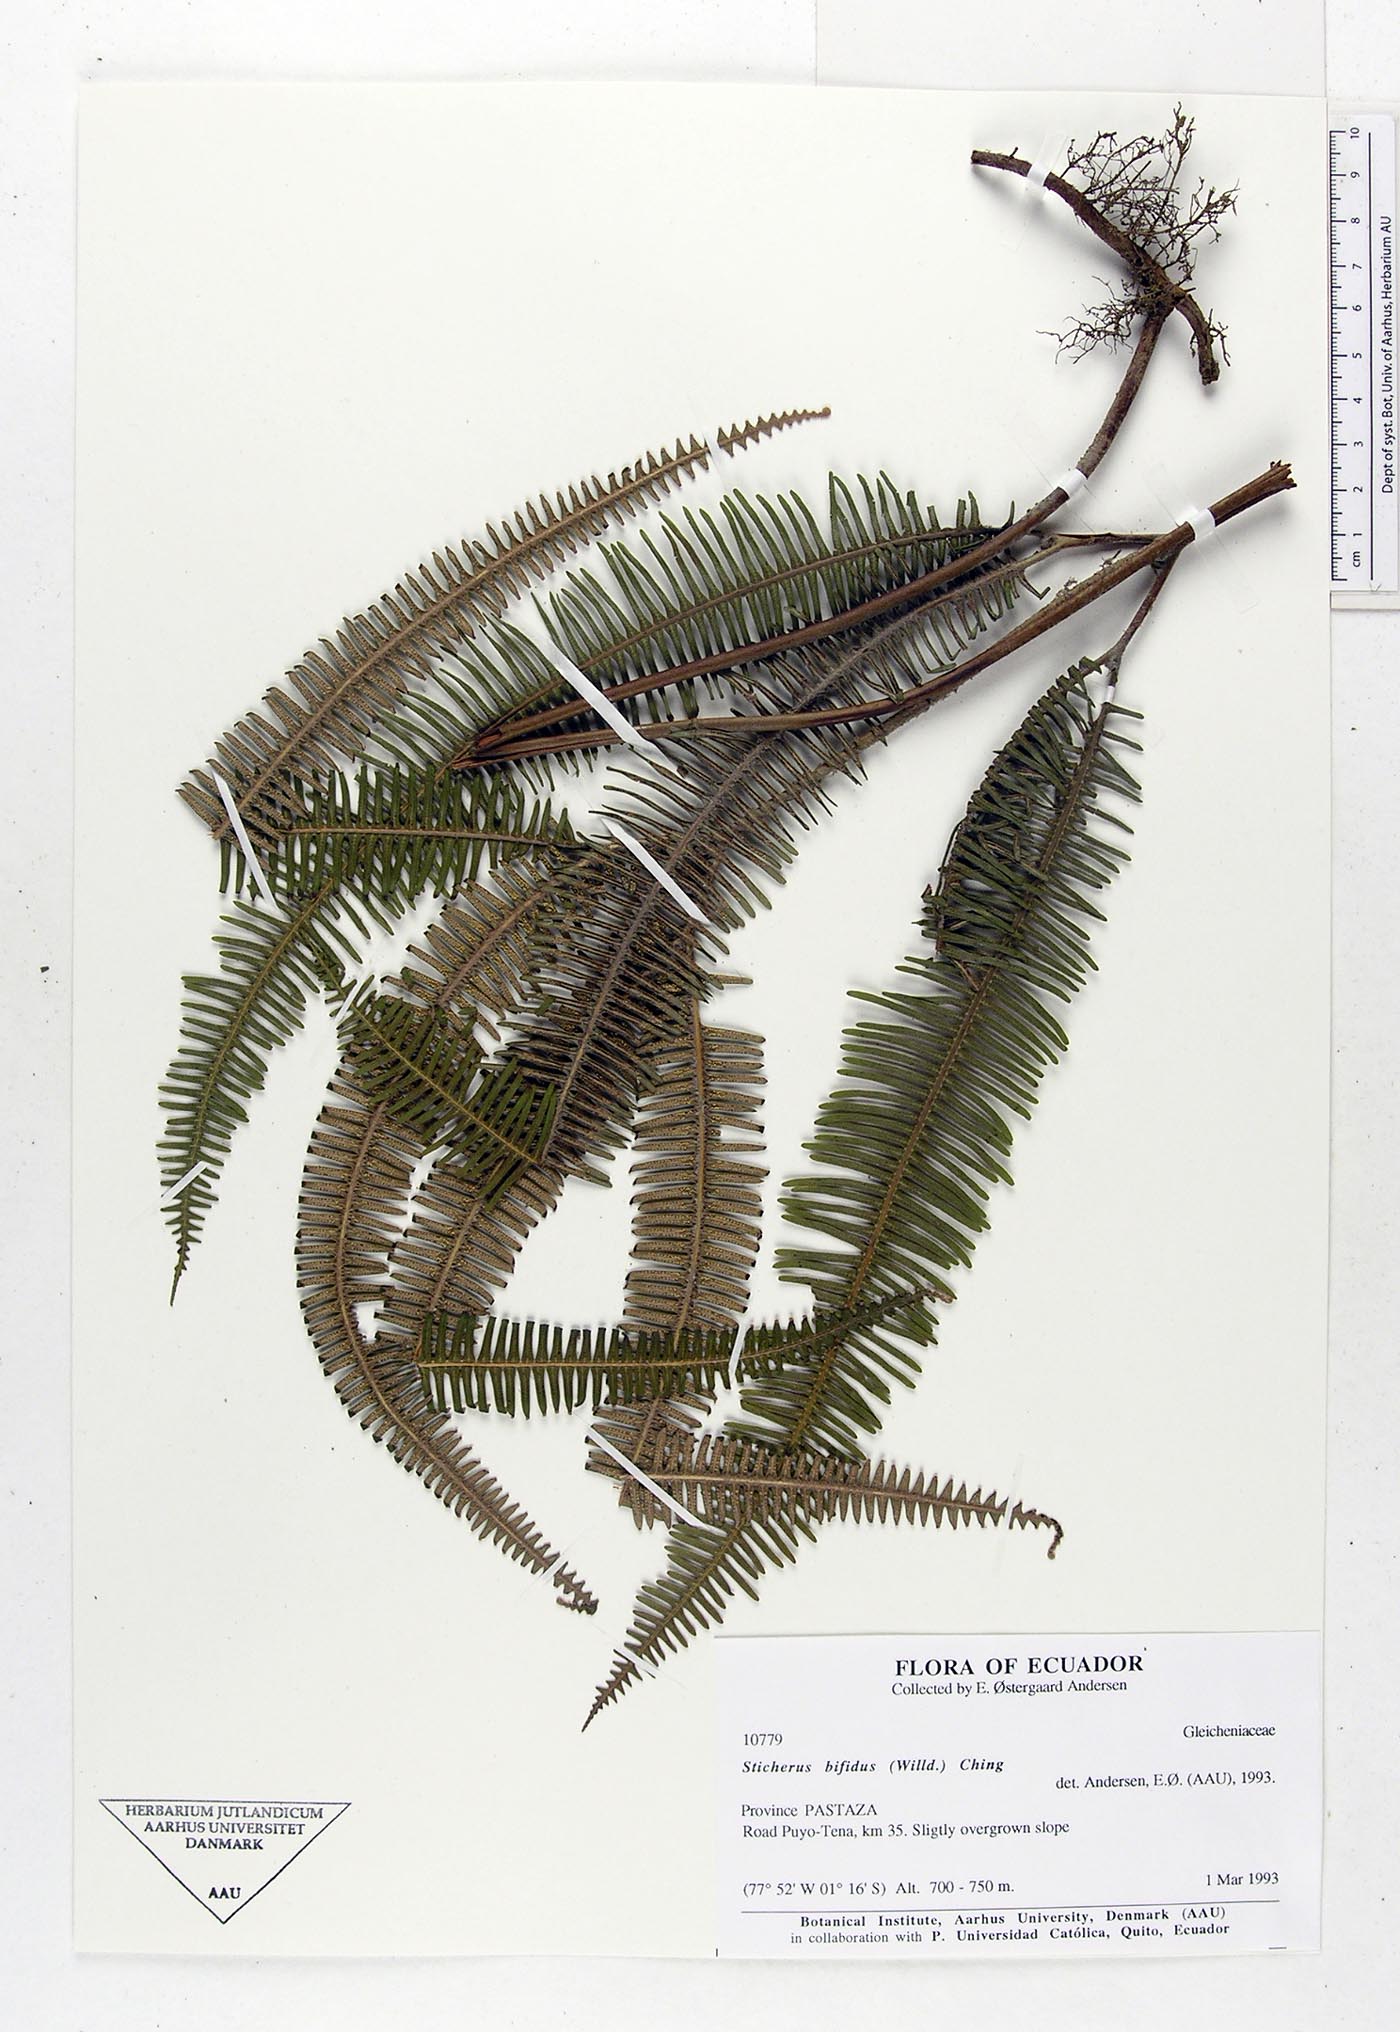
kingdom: Plantae
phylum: Tracheophyta
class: Polypodiopsida
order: Gleicheniales
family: Gleicheniaceae
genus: Sticherus
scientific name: Sticherus bifidus
